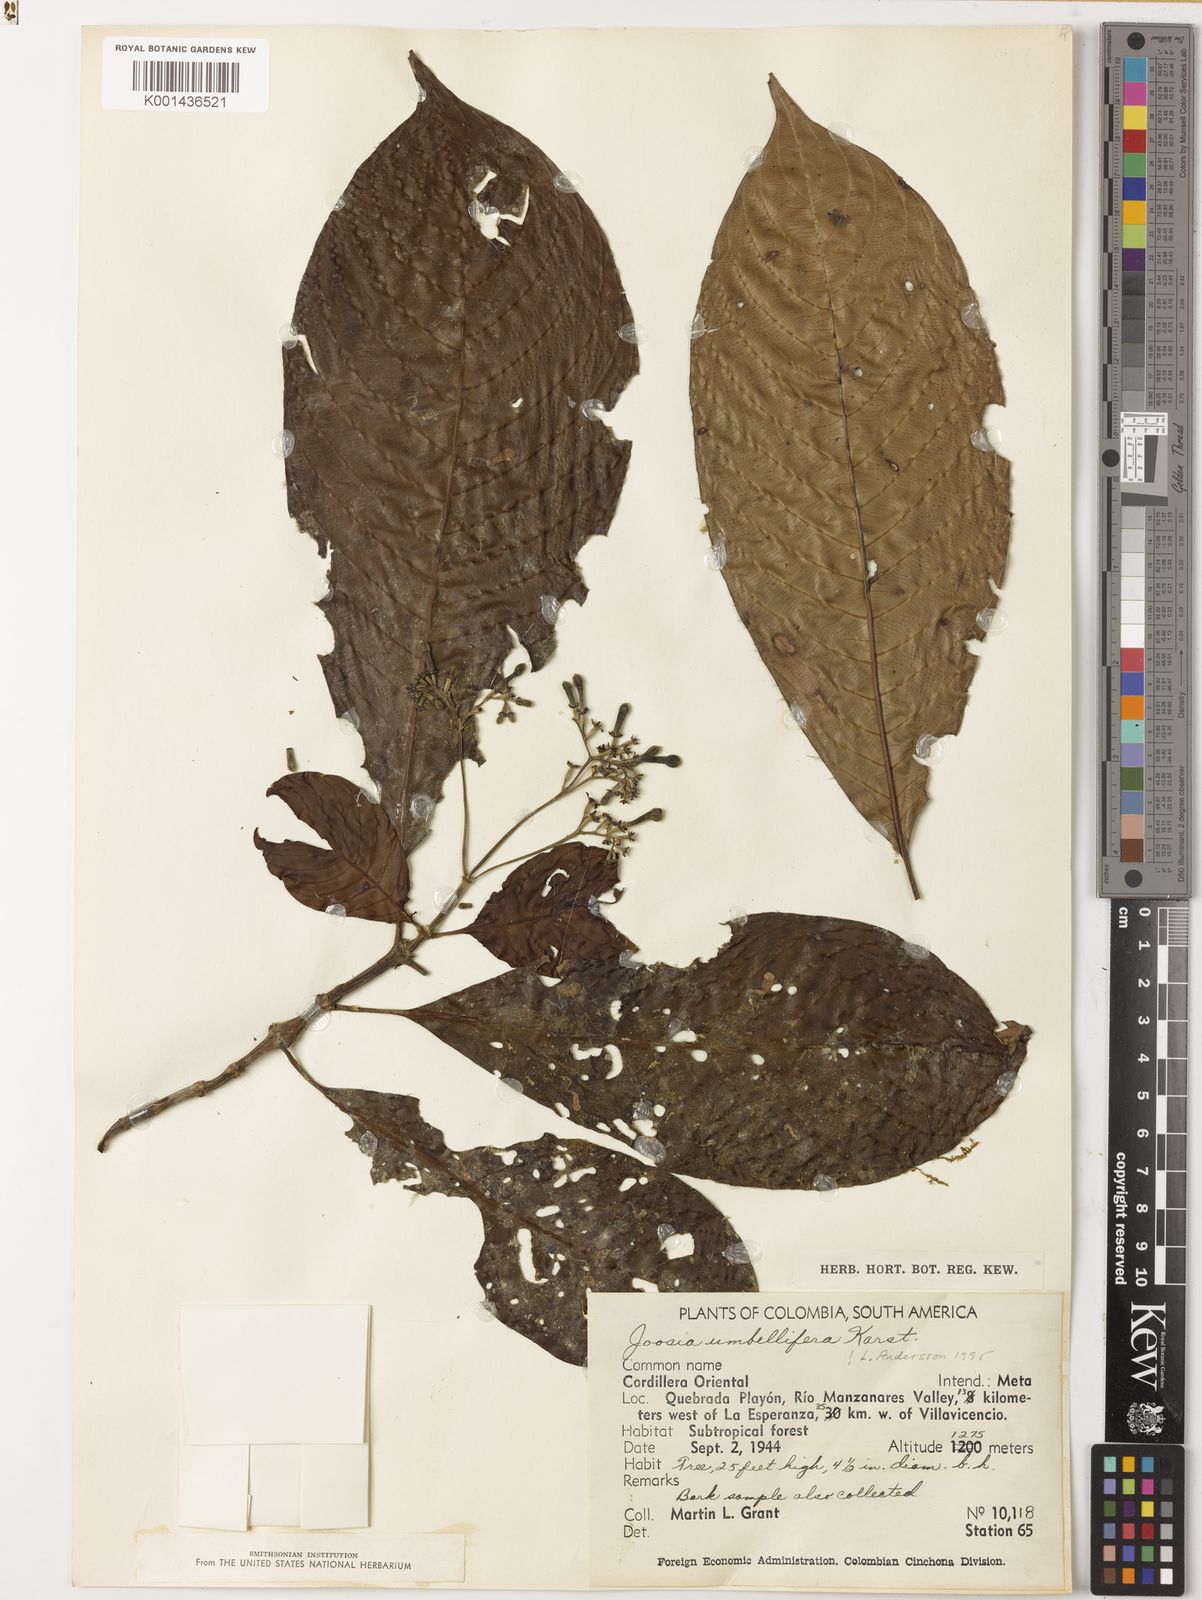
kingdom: Plantae
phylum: Tracheophyta
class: Magnoliopsida
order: Gentianales
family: Rubiaceae
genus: Joosia
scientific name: Joosia umbellifera
